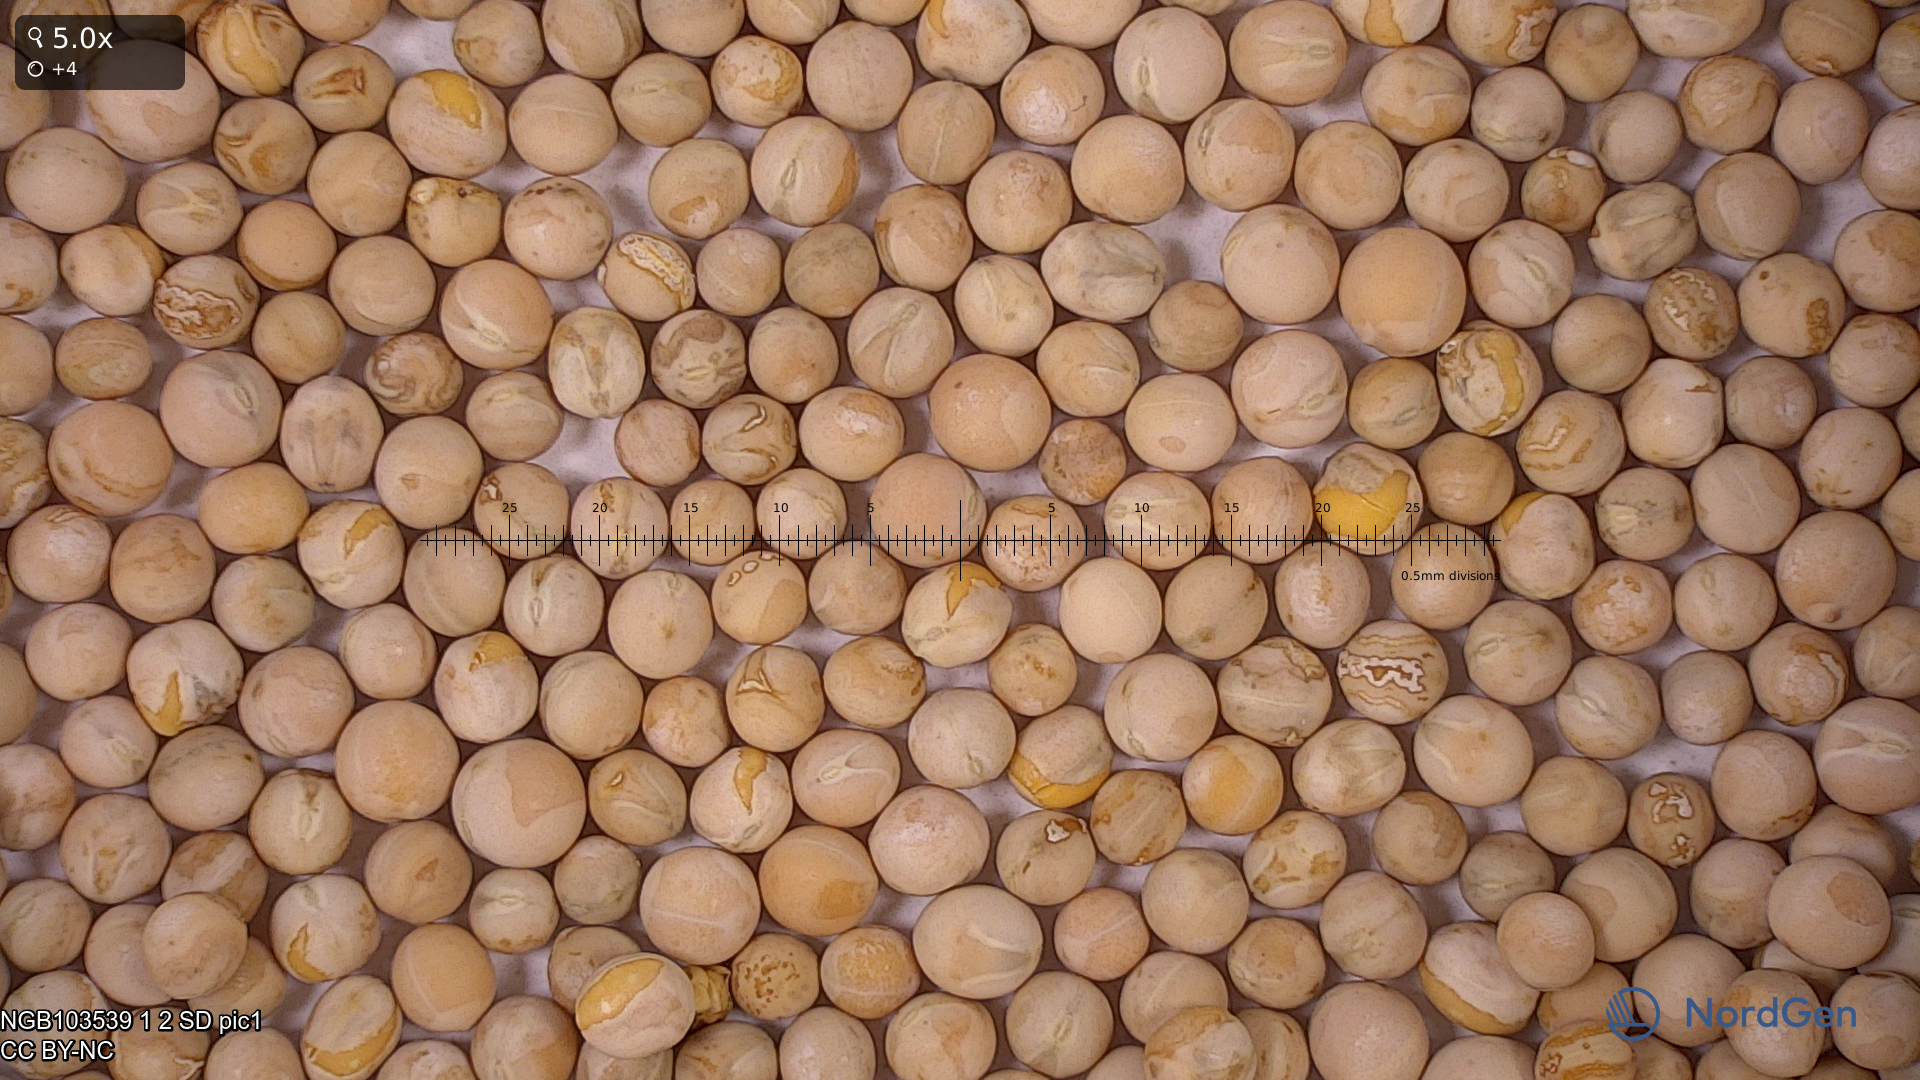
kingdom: Plantae
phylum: Tracheophyta
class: Magnoliopsida
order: Fabales
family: Fabaceae
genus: Lathyrus
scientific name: Lathyrus oleraceus
